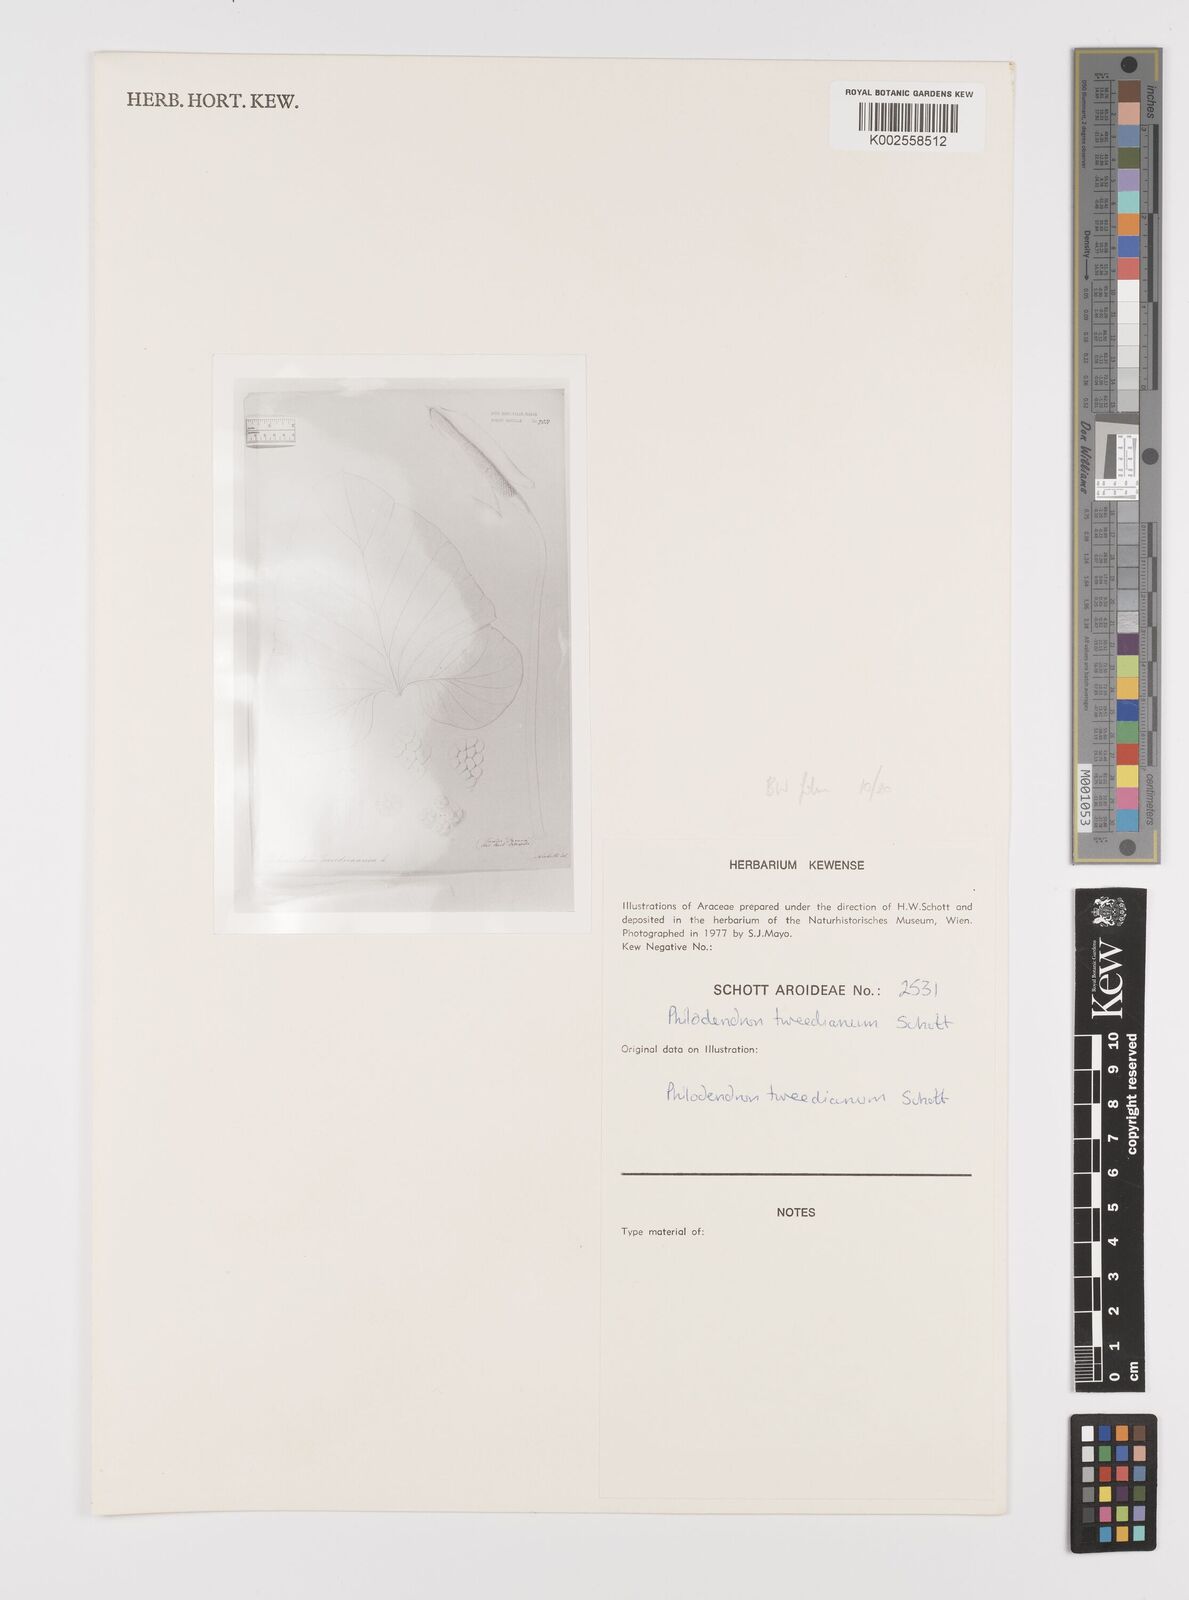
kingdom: Plantae
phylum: Tracheophyta
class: Liliopsida
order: Alismatales
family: Araceae
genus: Thaumatophyllum
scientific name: Thaumatophyllum tweedieanum
